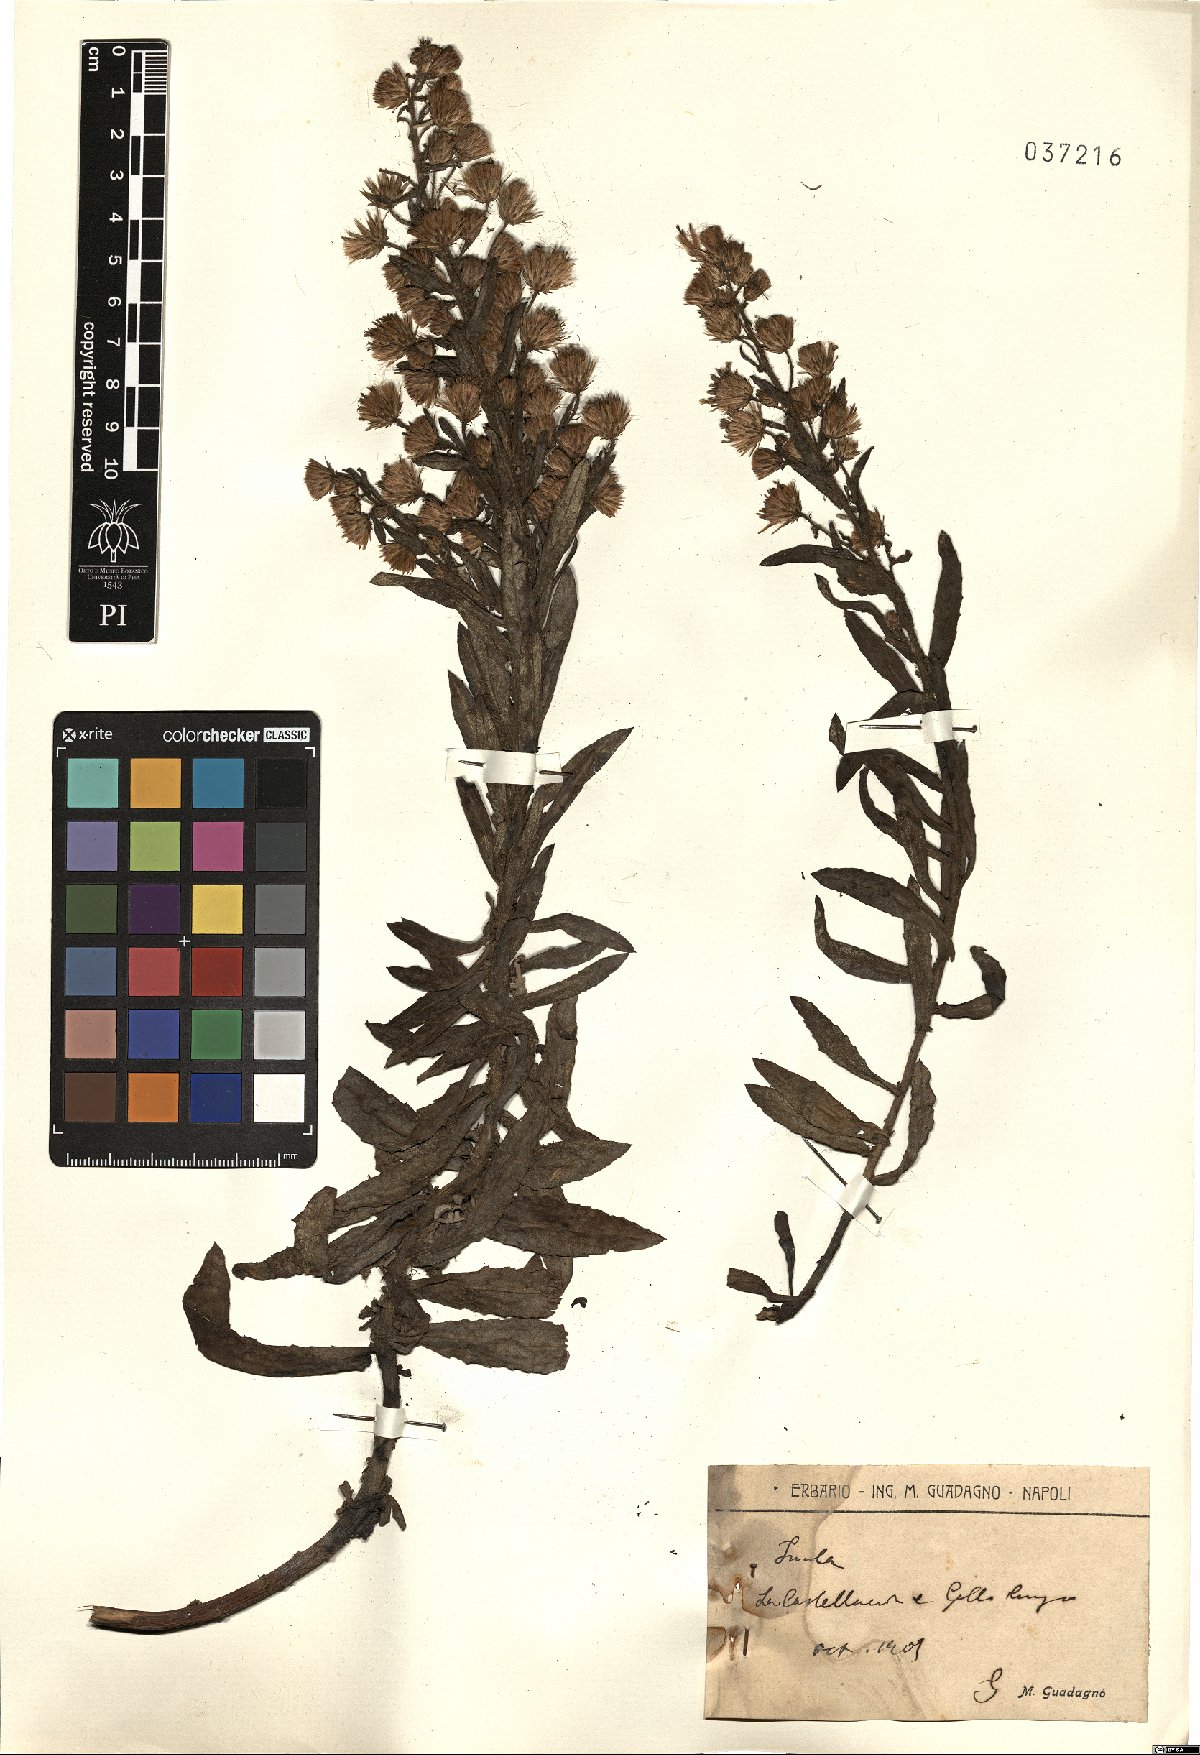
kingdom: Plantae
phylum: Tracheophyta
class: Magnoliopsida
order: Asterales
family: Asteraceae
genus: Inula
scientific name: Inula
